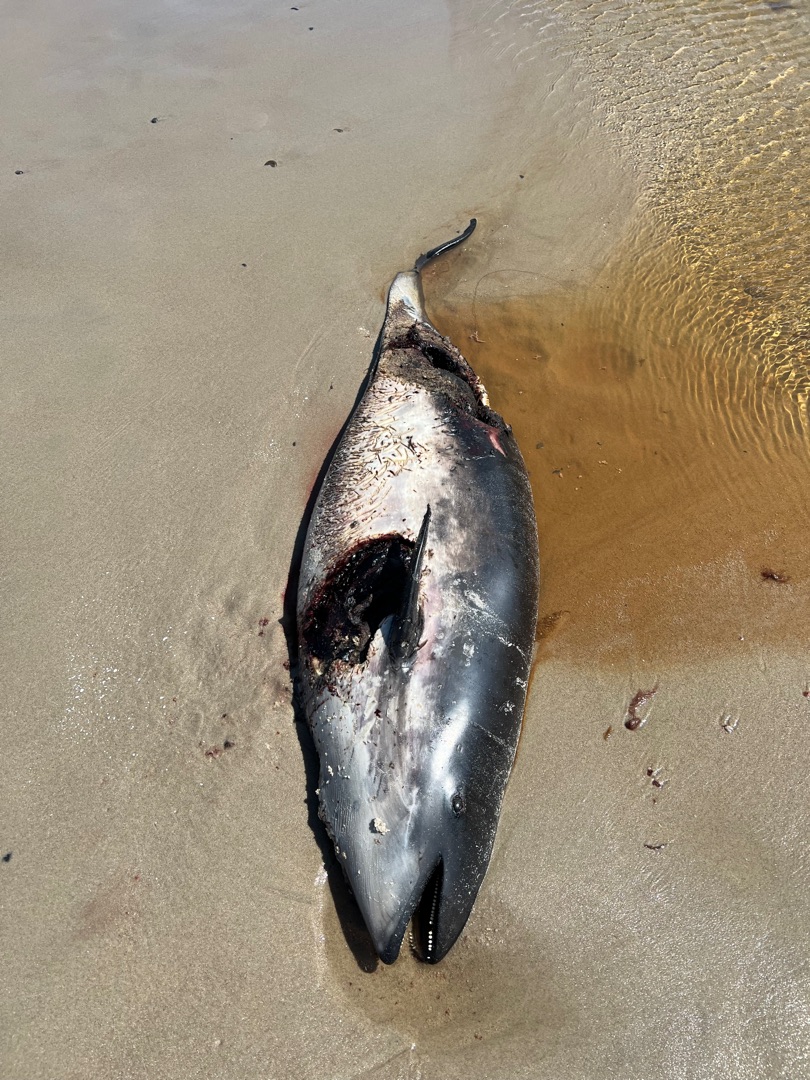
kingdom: Animalia
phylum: Chordata
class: Mammalia
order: Cetacea
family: Phocoenidae
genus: Phocoena
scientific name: Phocoena phocoena
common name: Marsvin
